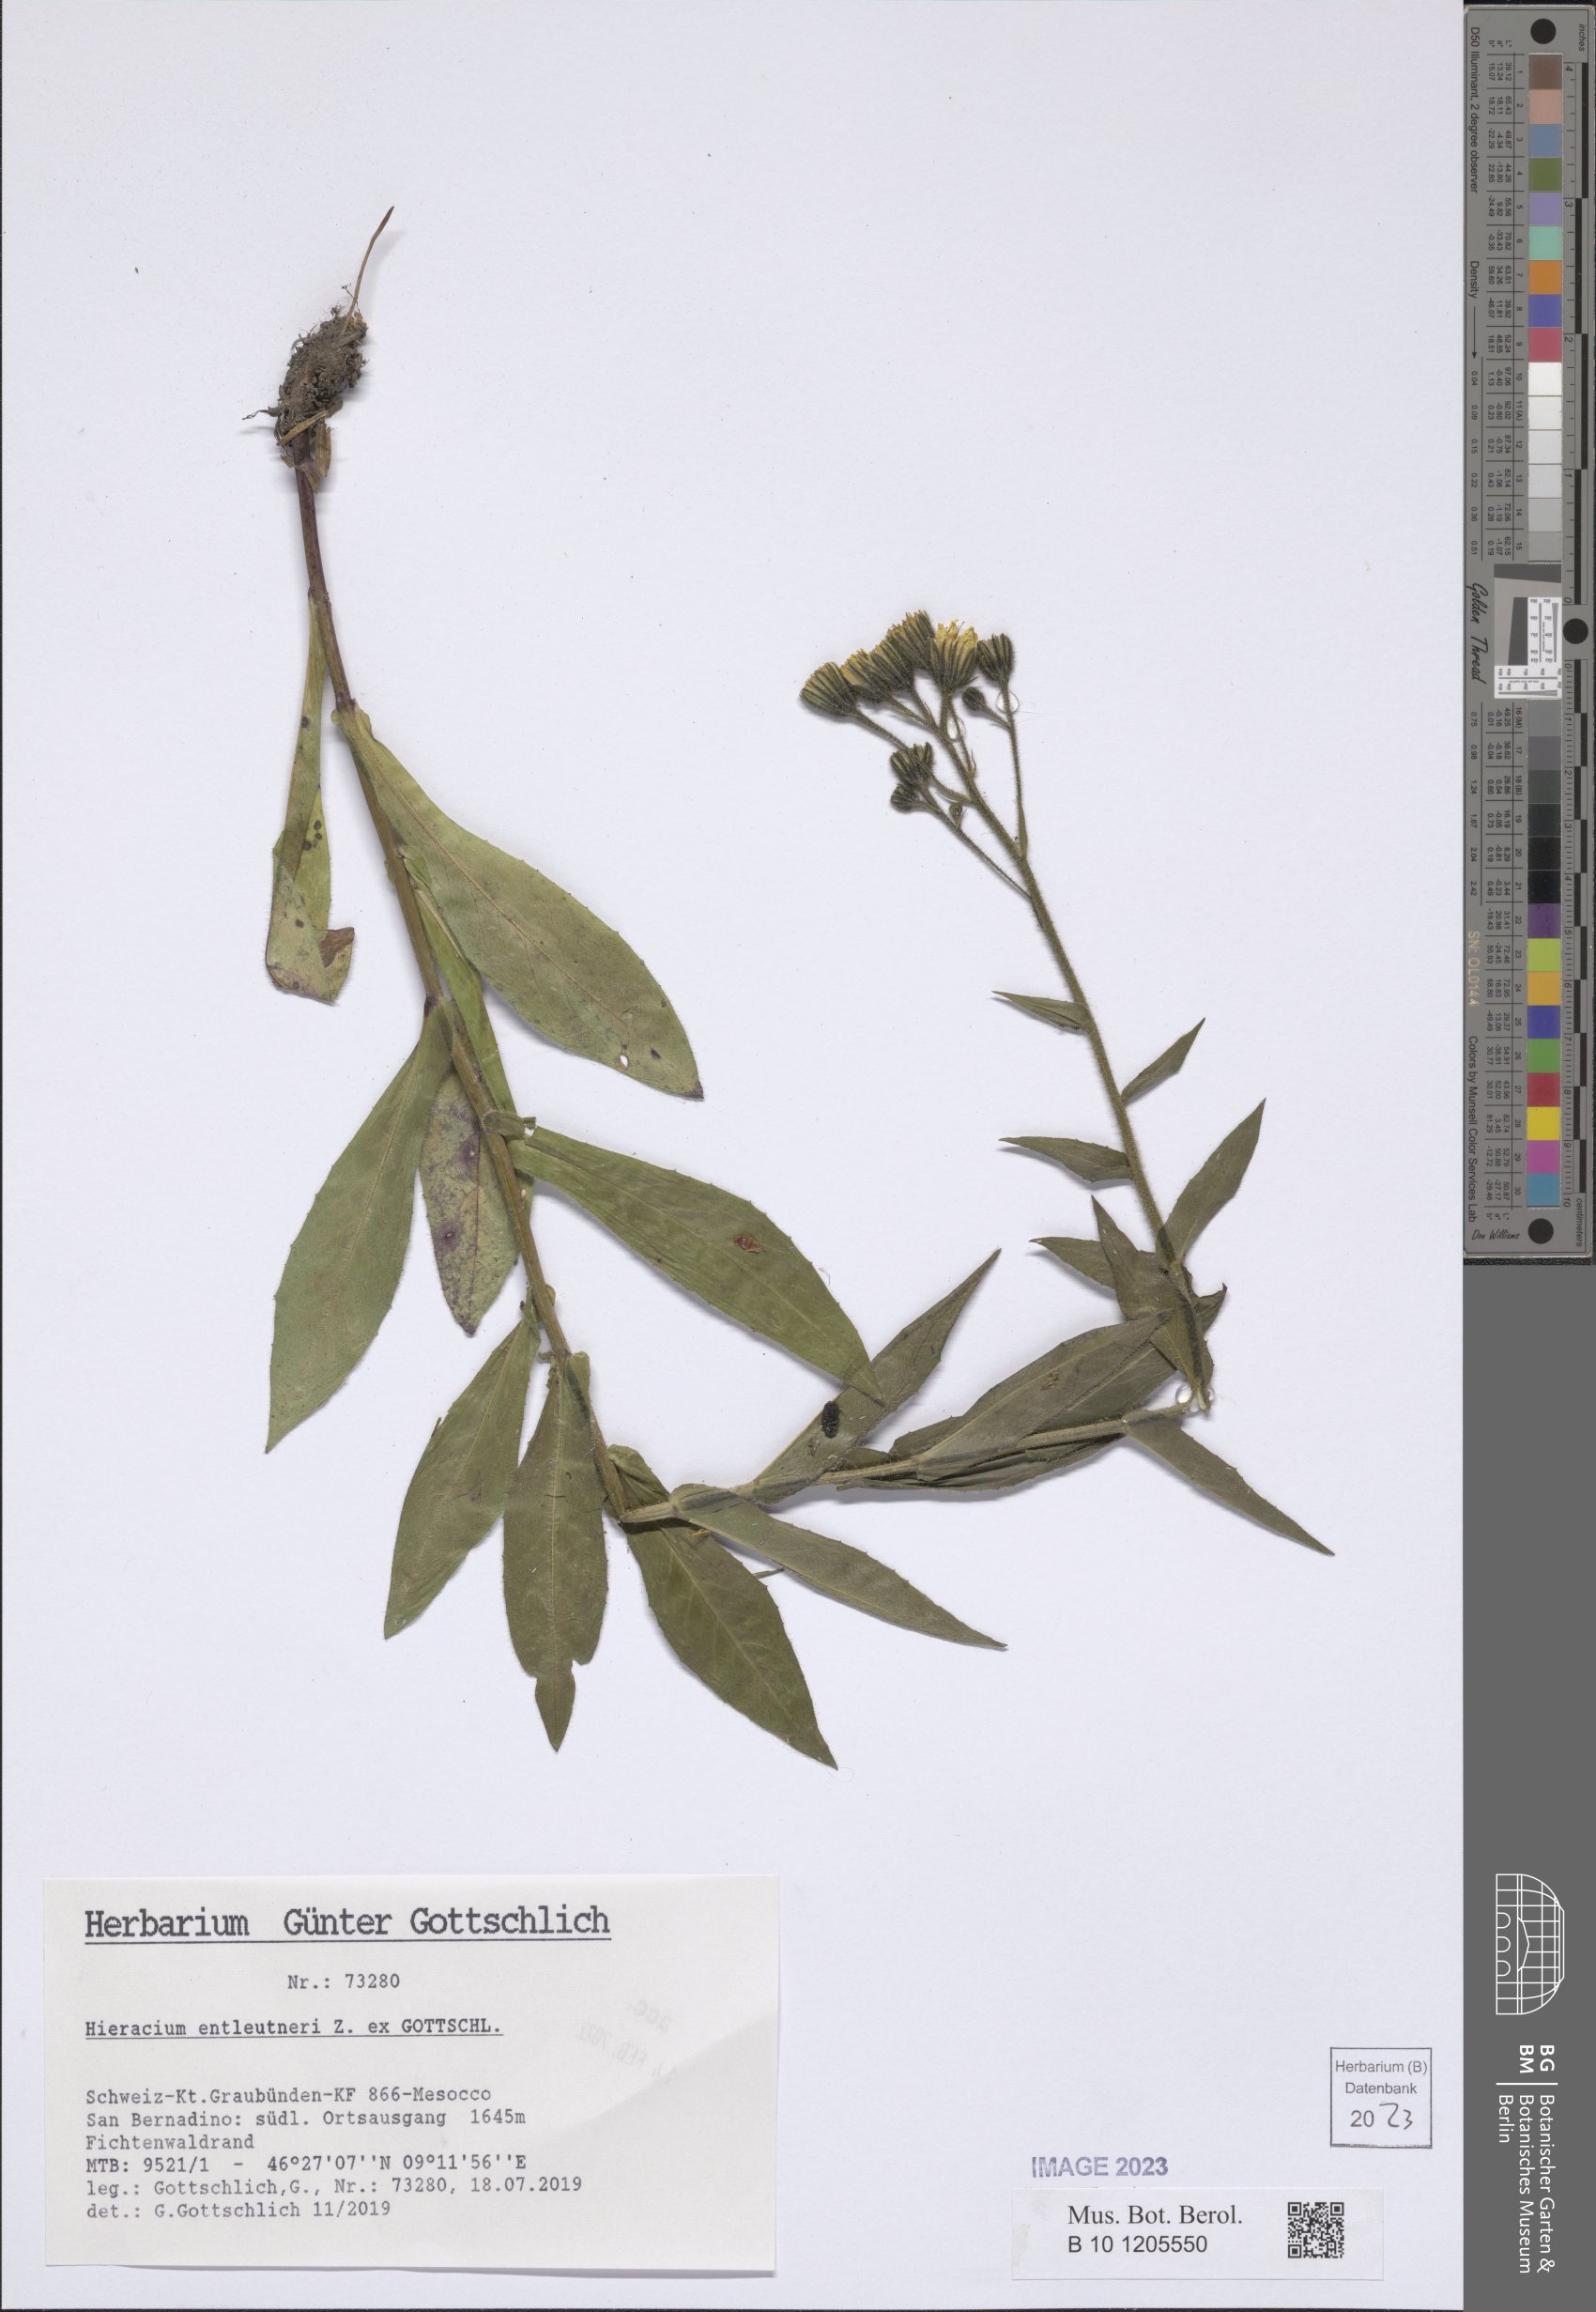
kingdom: Plantae
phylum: Tracheophyta
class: Magnoliopsida
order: Asterales
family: Asteraceae
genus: Hieracium
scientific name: Hieracium entleutneri
